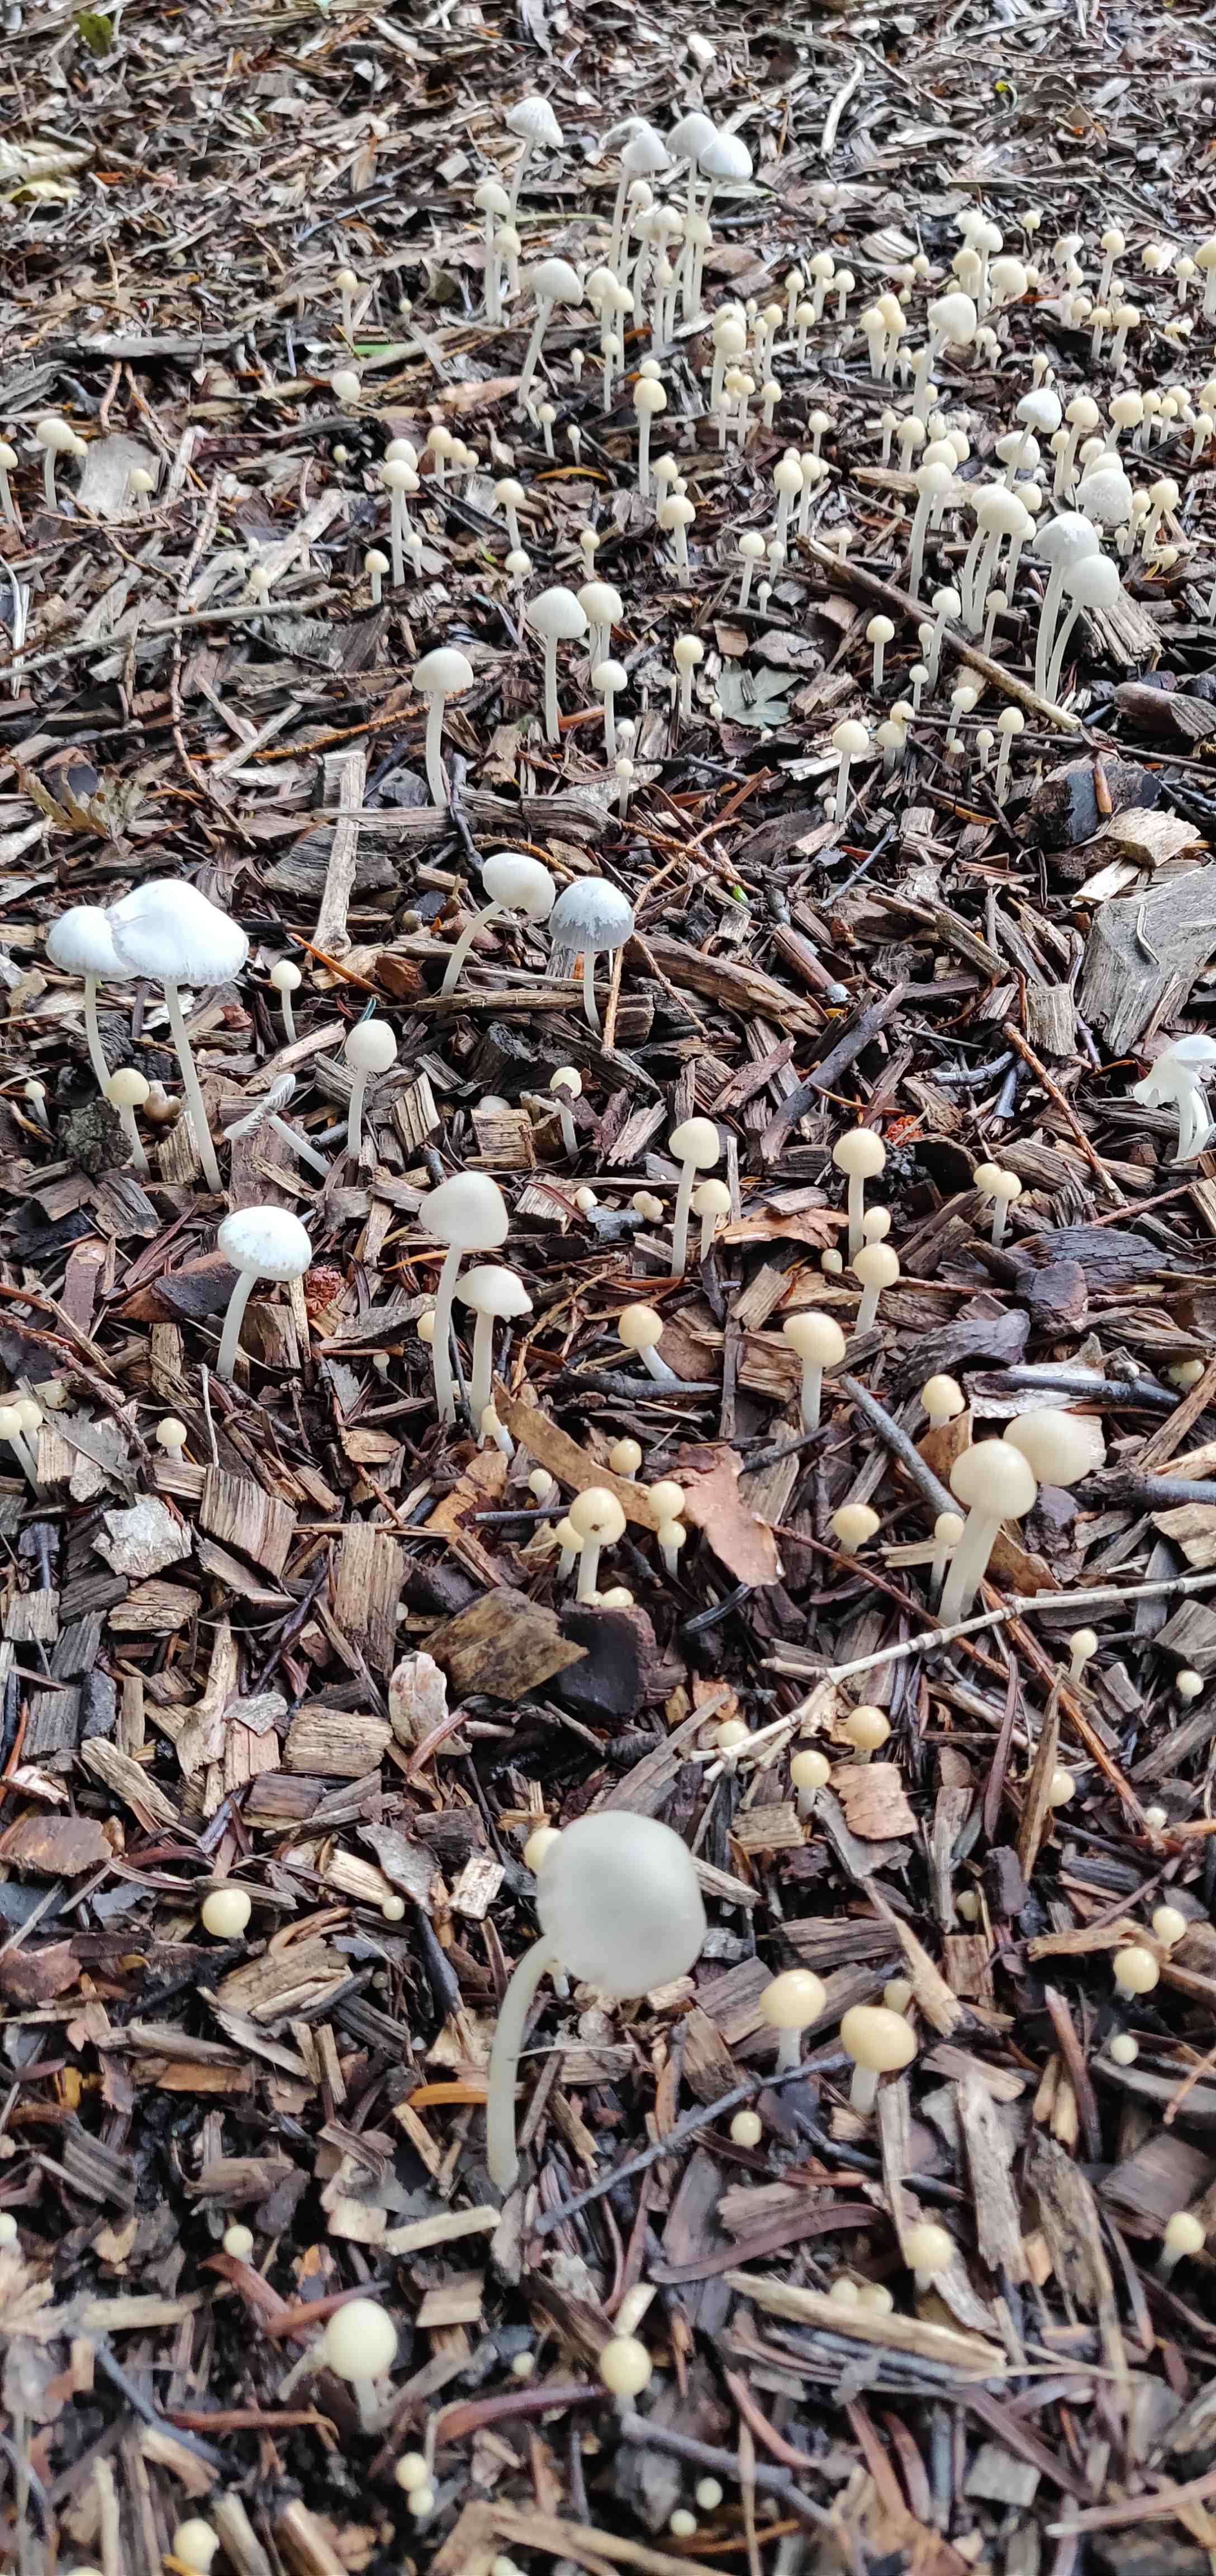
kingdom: Fungi
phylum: Basidiomycota
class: Agaricomycetes
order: Agaricales
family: Psathyrellaceae
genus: Psathyrella
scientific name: Psathyrella
